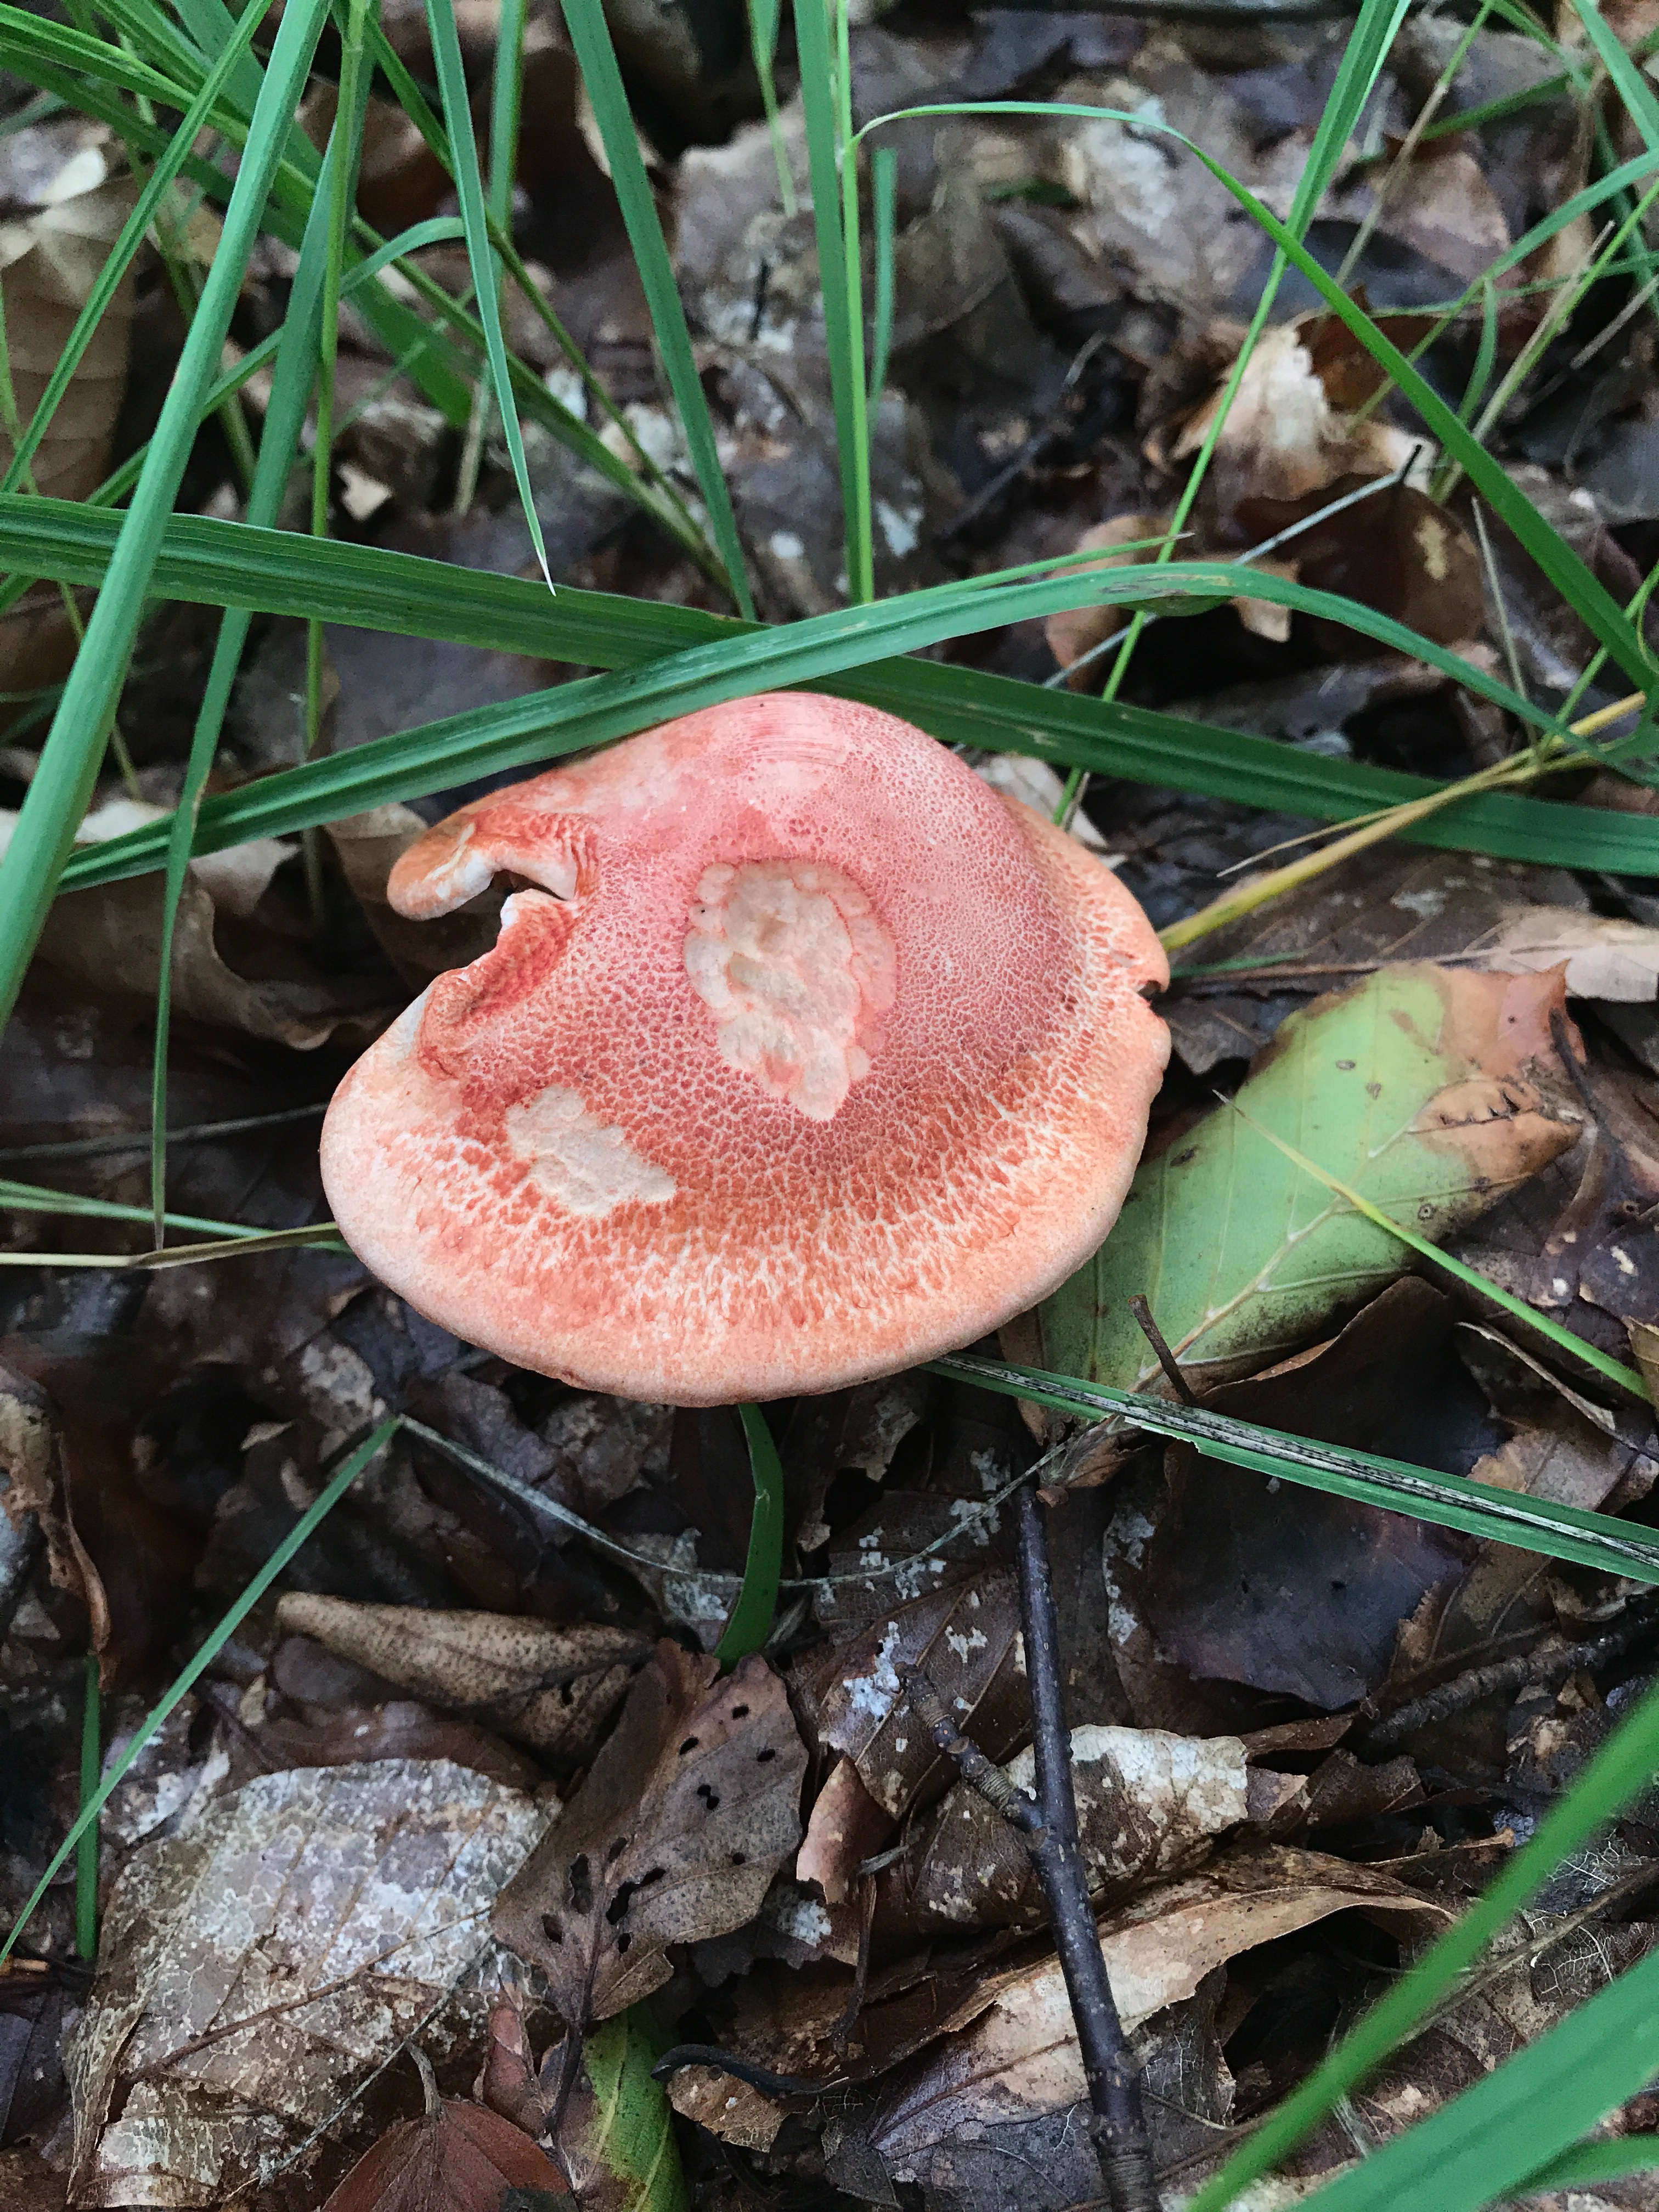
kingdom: Fungi
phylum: Basidiomycota
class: Agaricomycetes
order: Agaricales
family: Cortinariaceae
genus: Cortinarius
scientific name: Cortinarius bolaris
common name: cinnoberskællet slørhat
